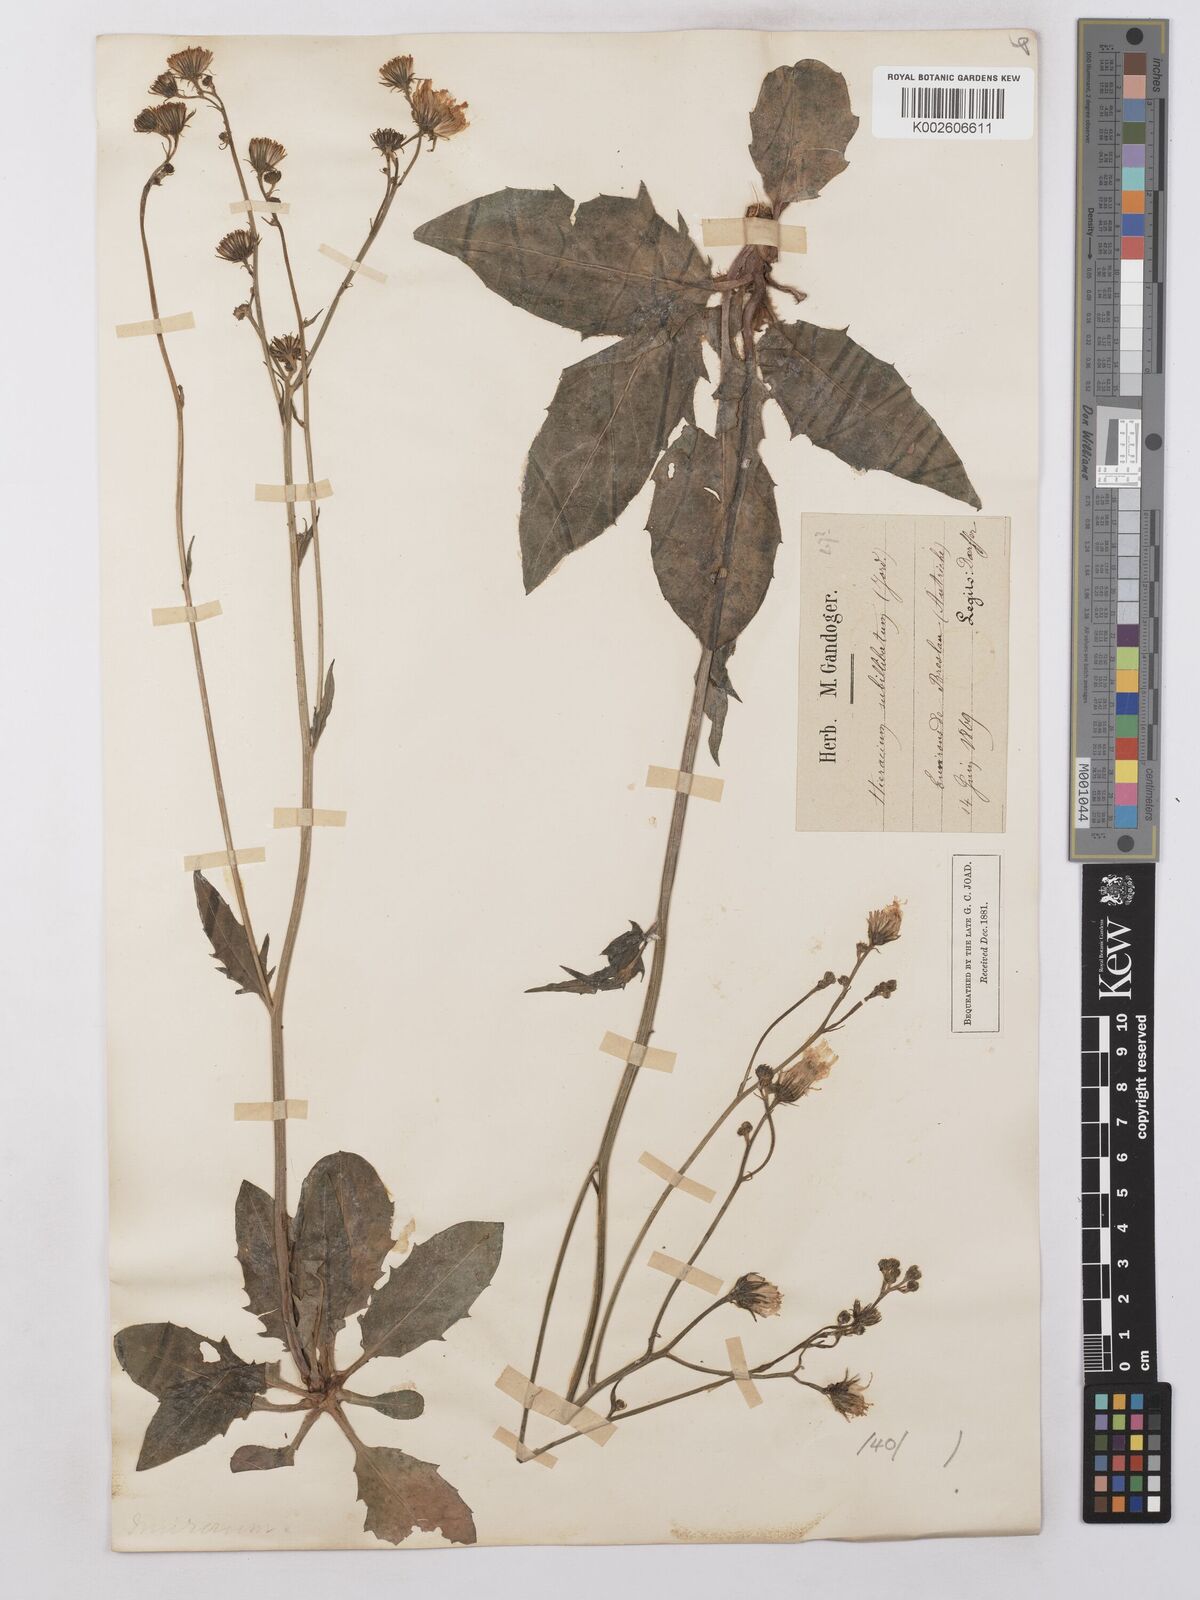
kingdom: Plantae
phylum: Tracheophyta
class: Magnoliopsida
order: Asterales
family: Asteraceae
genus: Hieracium
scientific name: Hieracium lachenalii
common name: Common hawkweed
